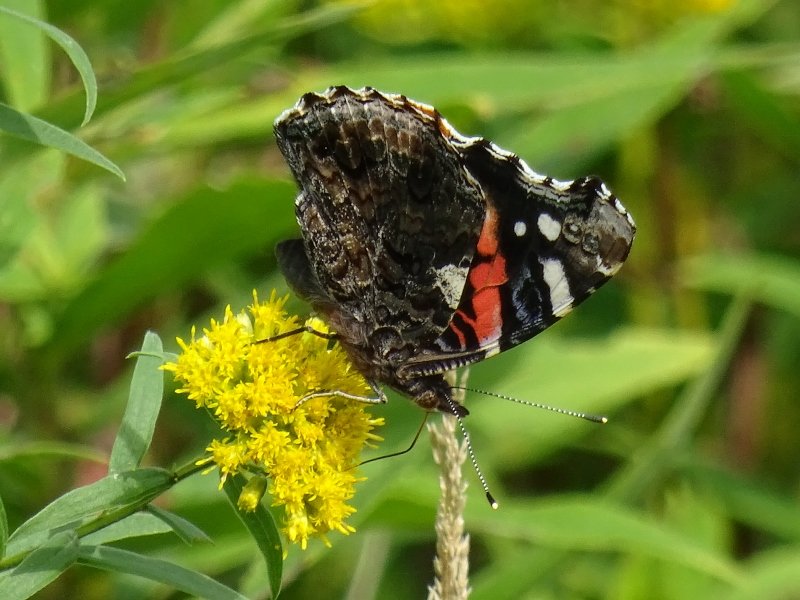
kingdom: Animalia
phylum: Arthropoda
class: Insecta
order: Lepidoptera
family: Nymphalidae
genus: Vanessa
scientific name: Vanessa atalanta
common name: Red Admiral
